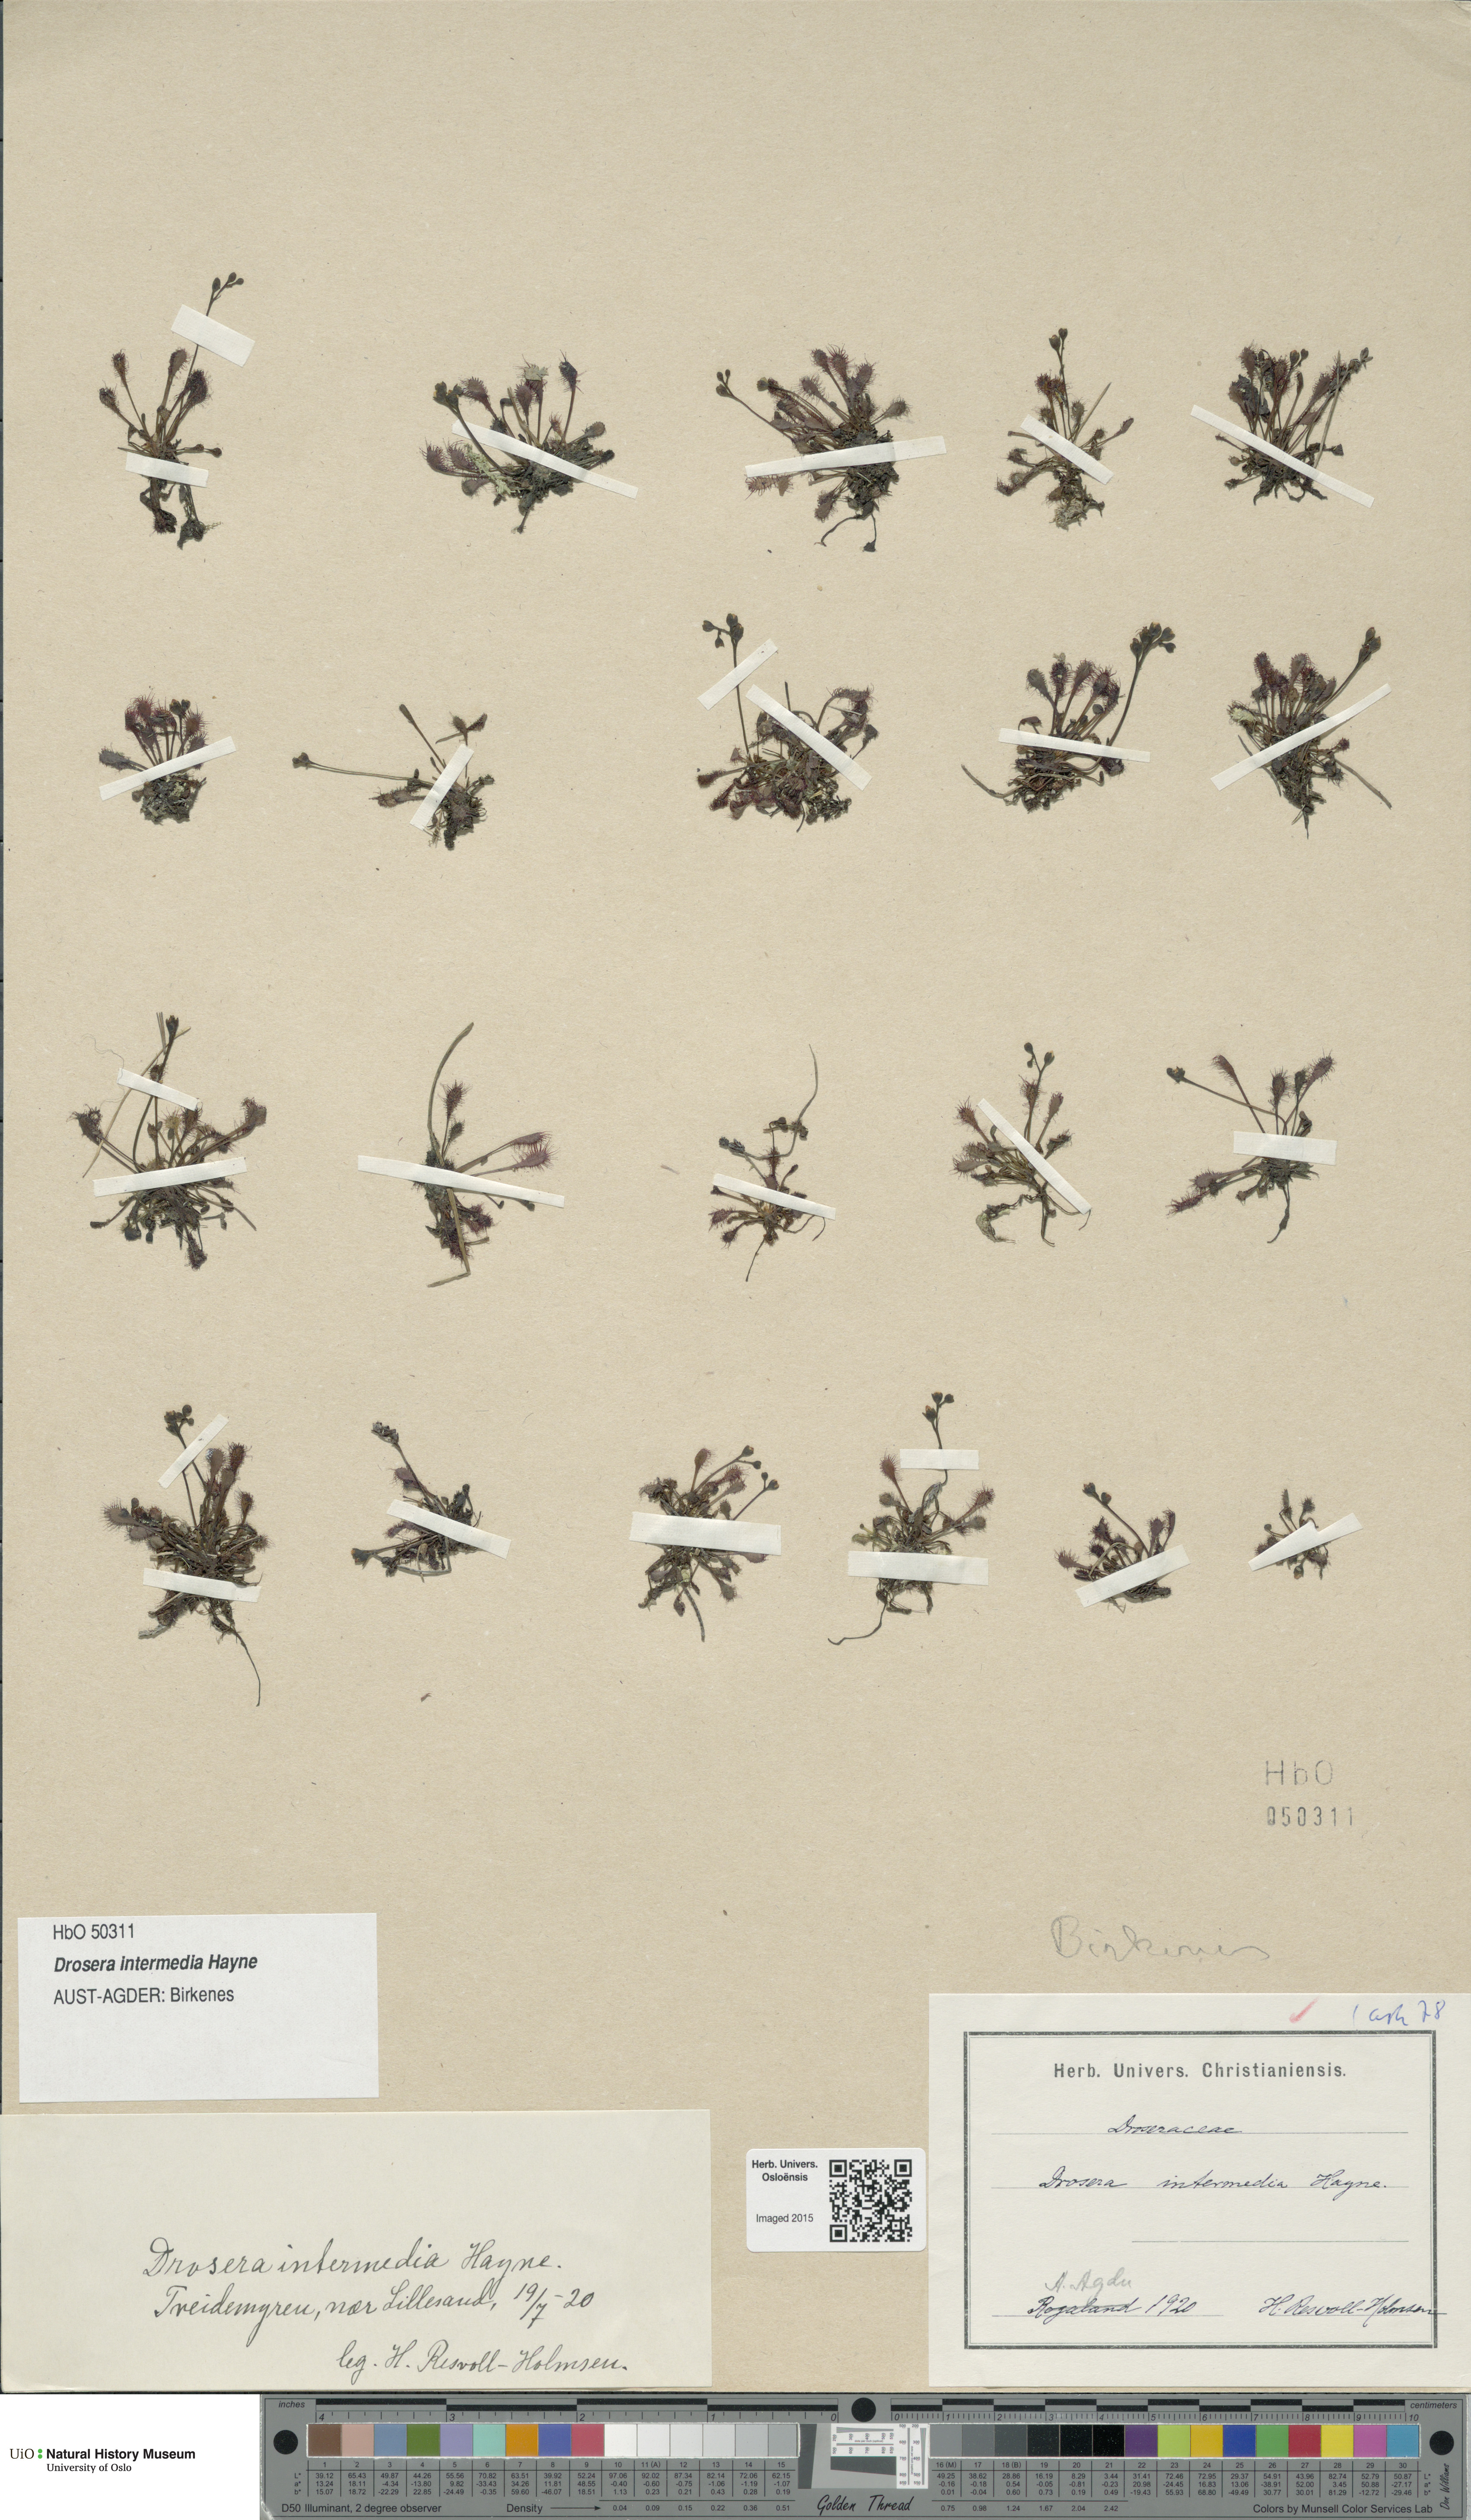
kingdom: Plantae
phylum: Tracheophyta
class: Magnoliopsida
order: Caryophyllales
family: Droseraceae
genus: Drosera
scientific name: Drosera intermedia
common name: Oblong-leaved sundew
